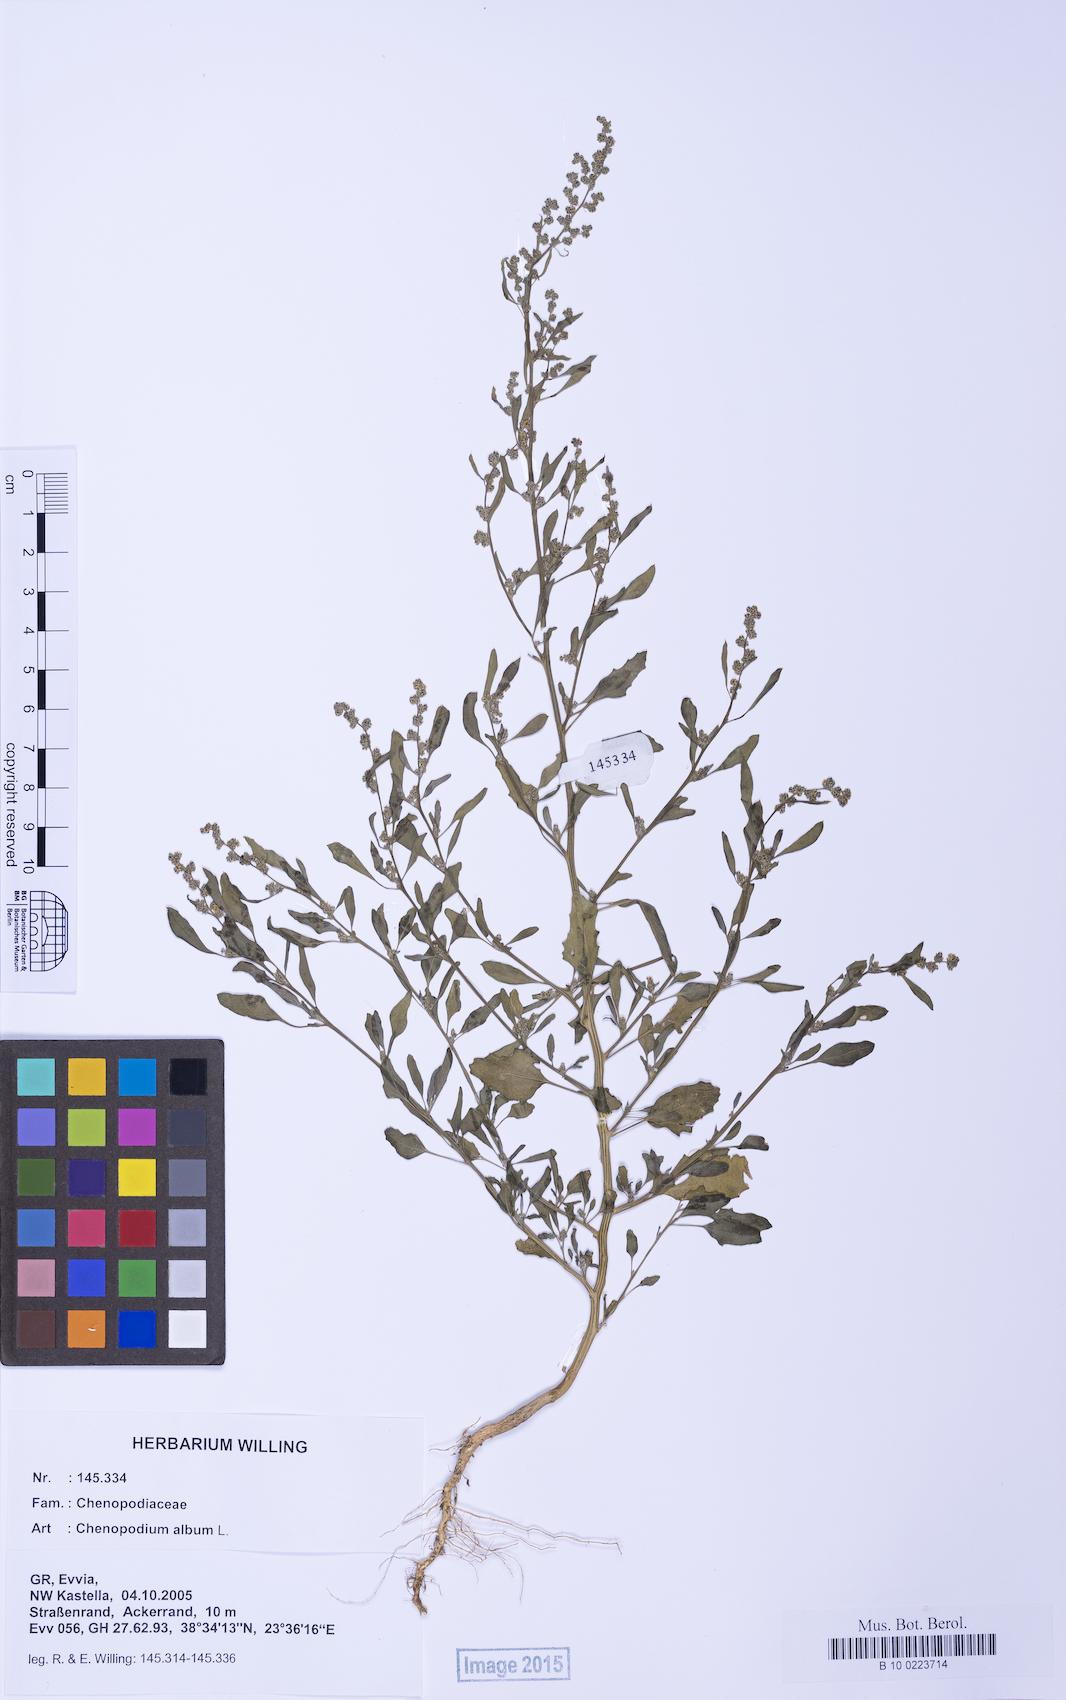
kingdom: Plantae
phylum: Tracheophyta
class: Magnoliopsida
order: Caryophyllales
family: Amaranthaceae
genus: Chenopodium
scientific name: Chenopodium album
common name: Fat-hen
